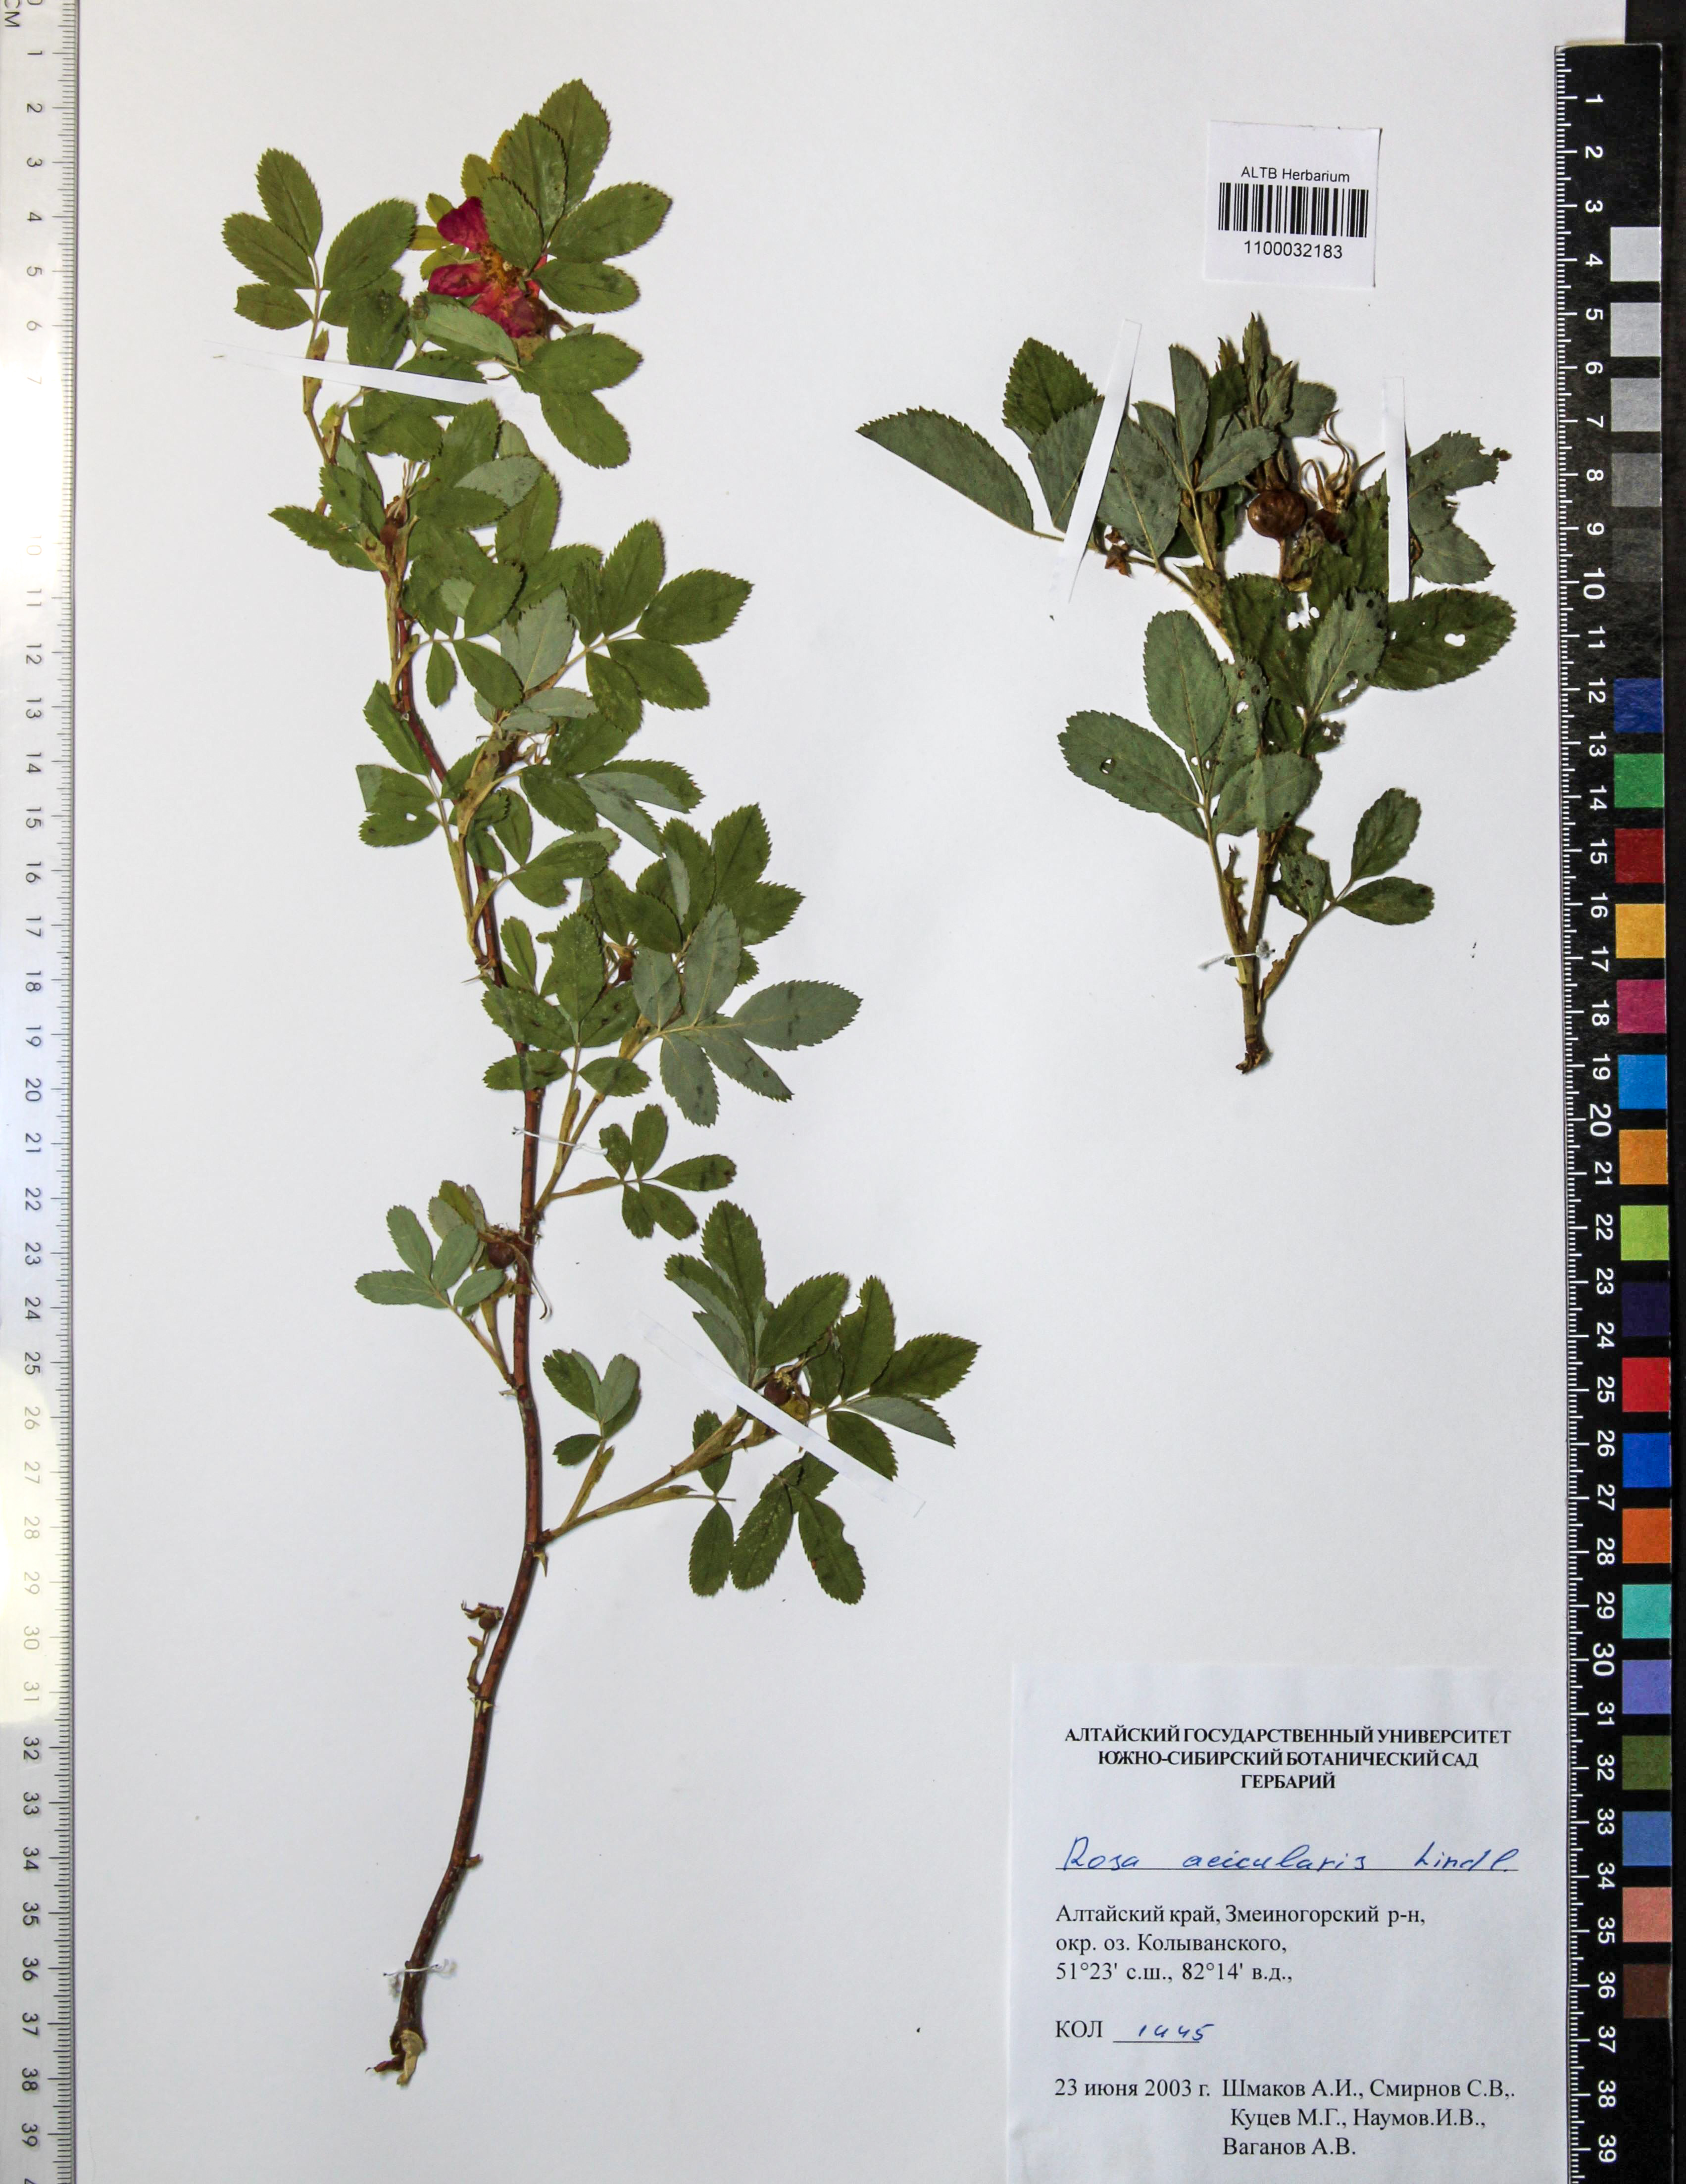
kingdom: Plantae
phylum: Tracheophyta
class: Magnoliopsida
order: Rosales
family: Rosaceae
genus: Rosa
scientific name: Rosa acicularis
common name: Prickly rose
